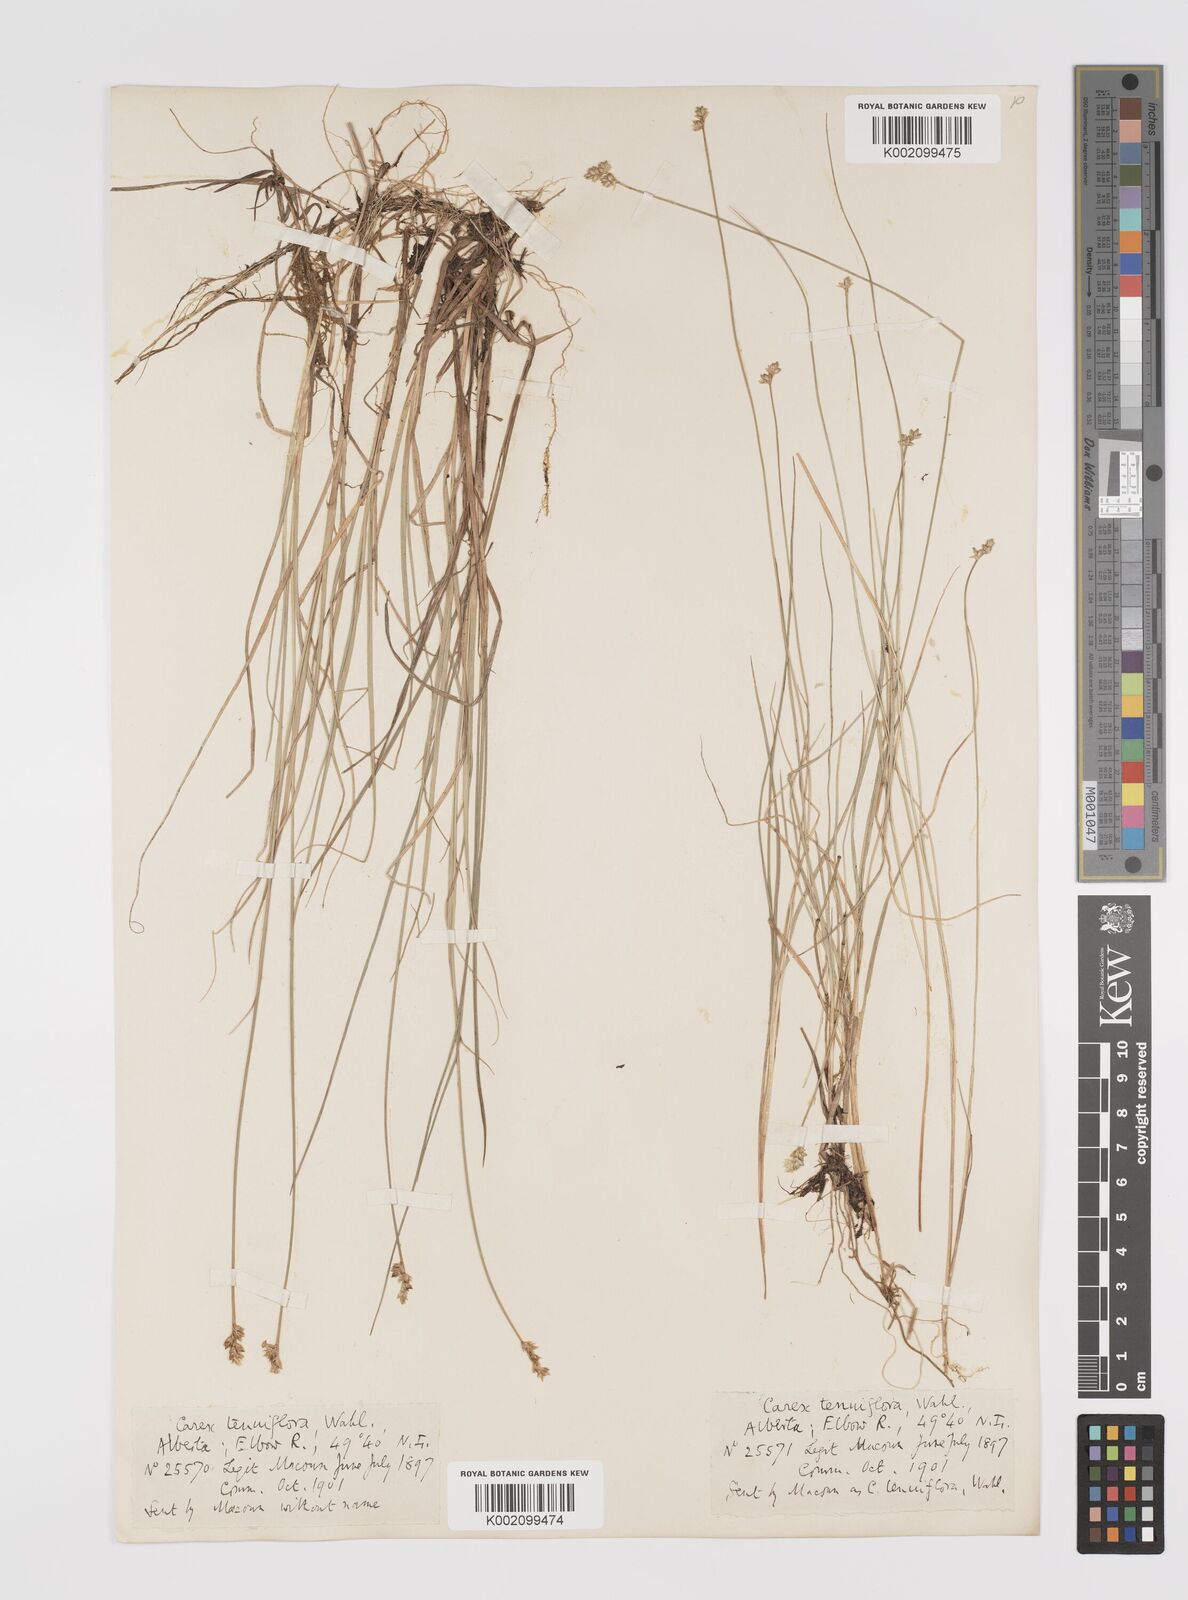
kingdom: Plantae
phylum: Tracheophyta
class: Liliopsida
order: Poales
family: Cyperaceae
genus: Carex
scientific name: Carex tenuiflora
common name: Sparse-flowered sedge
